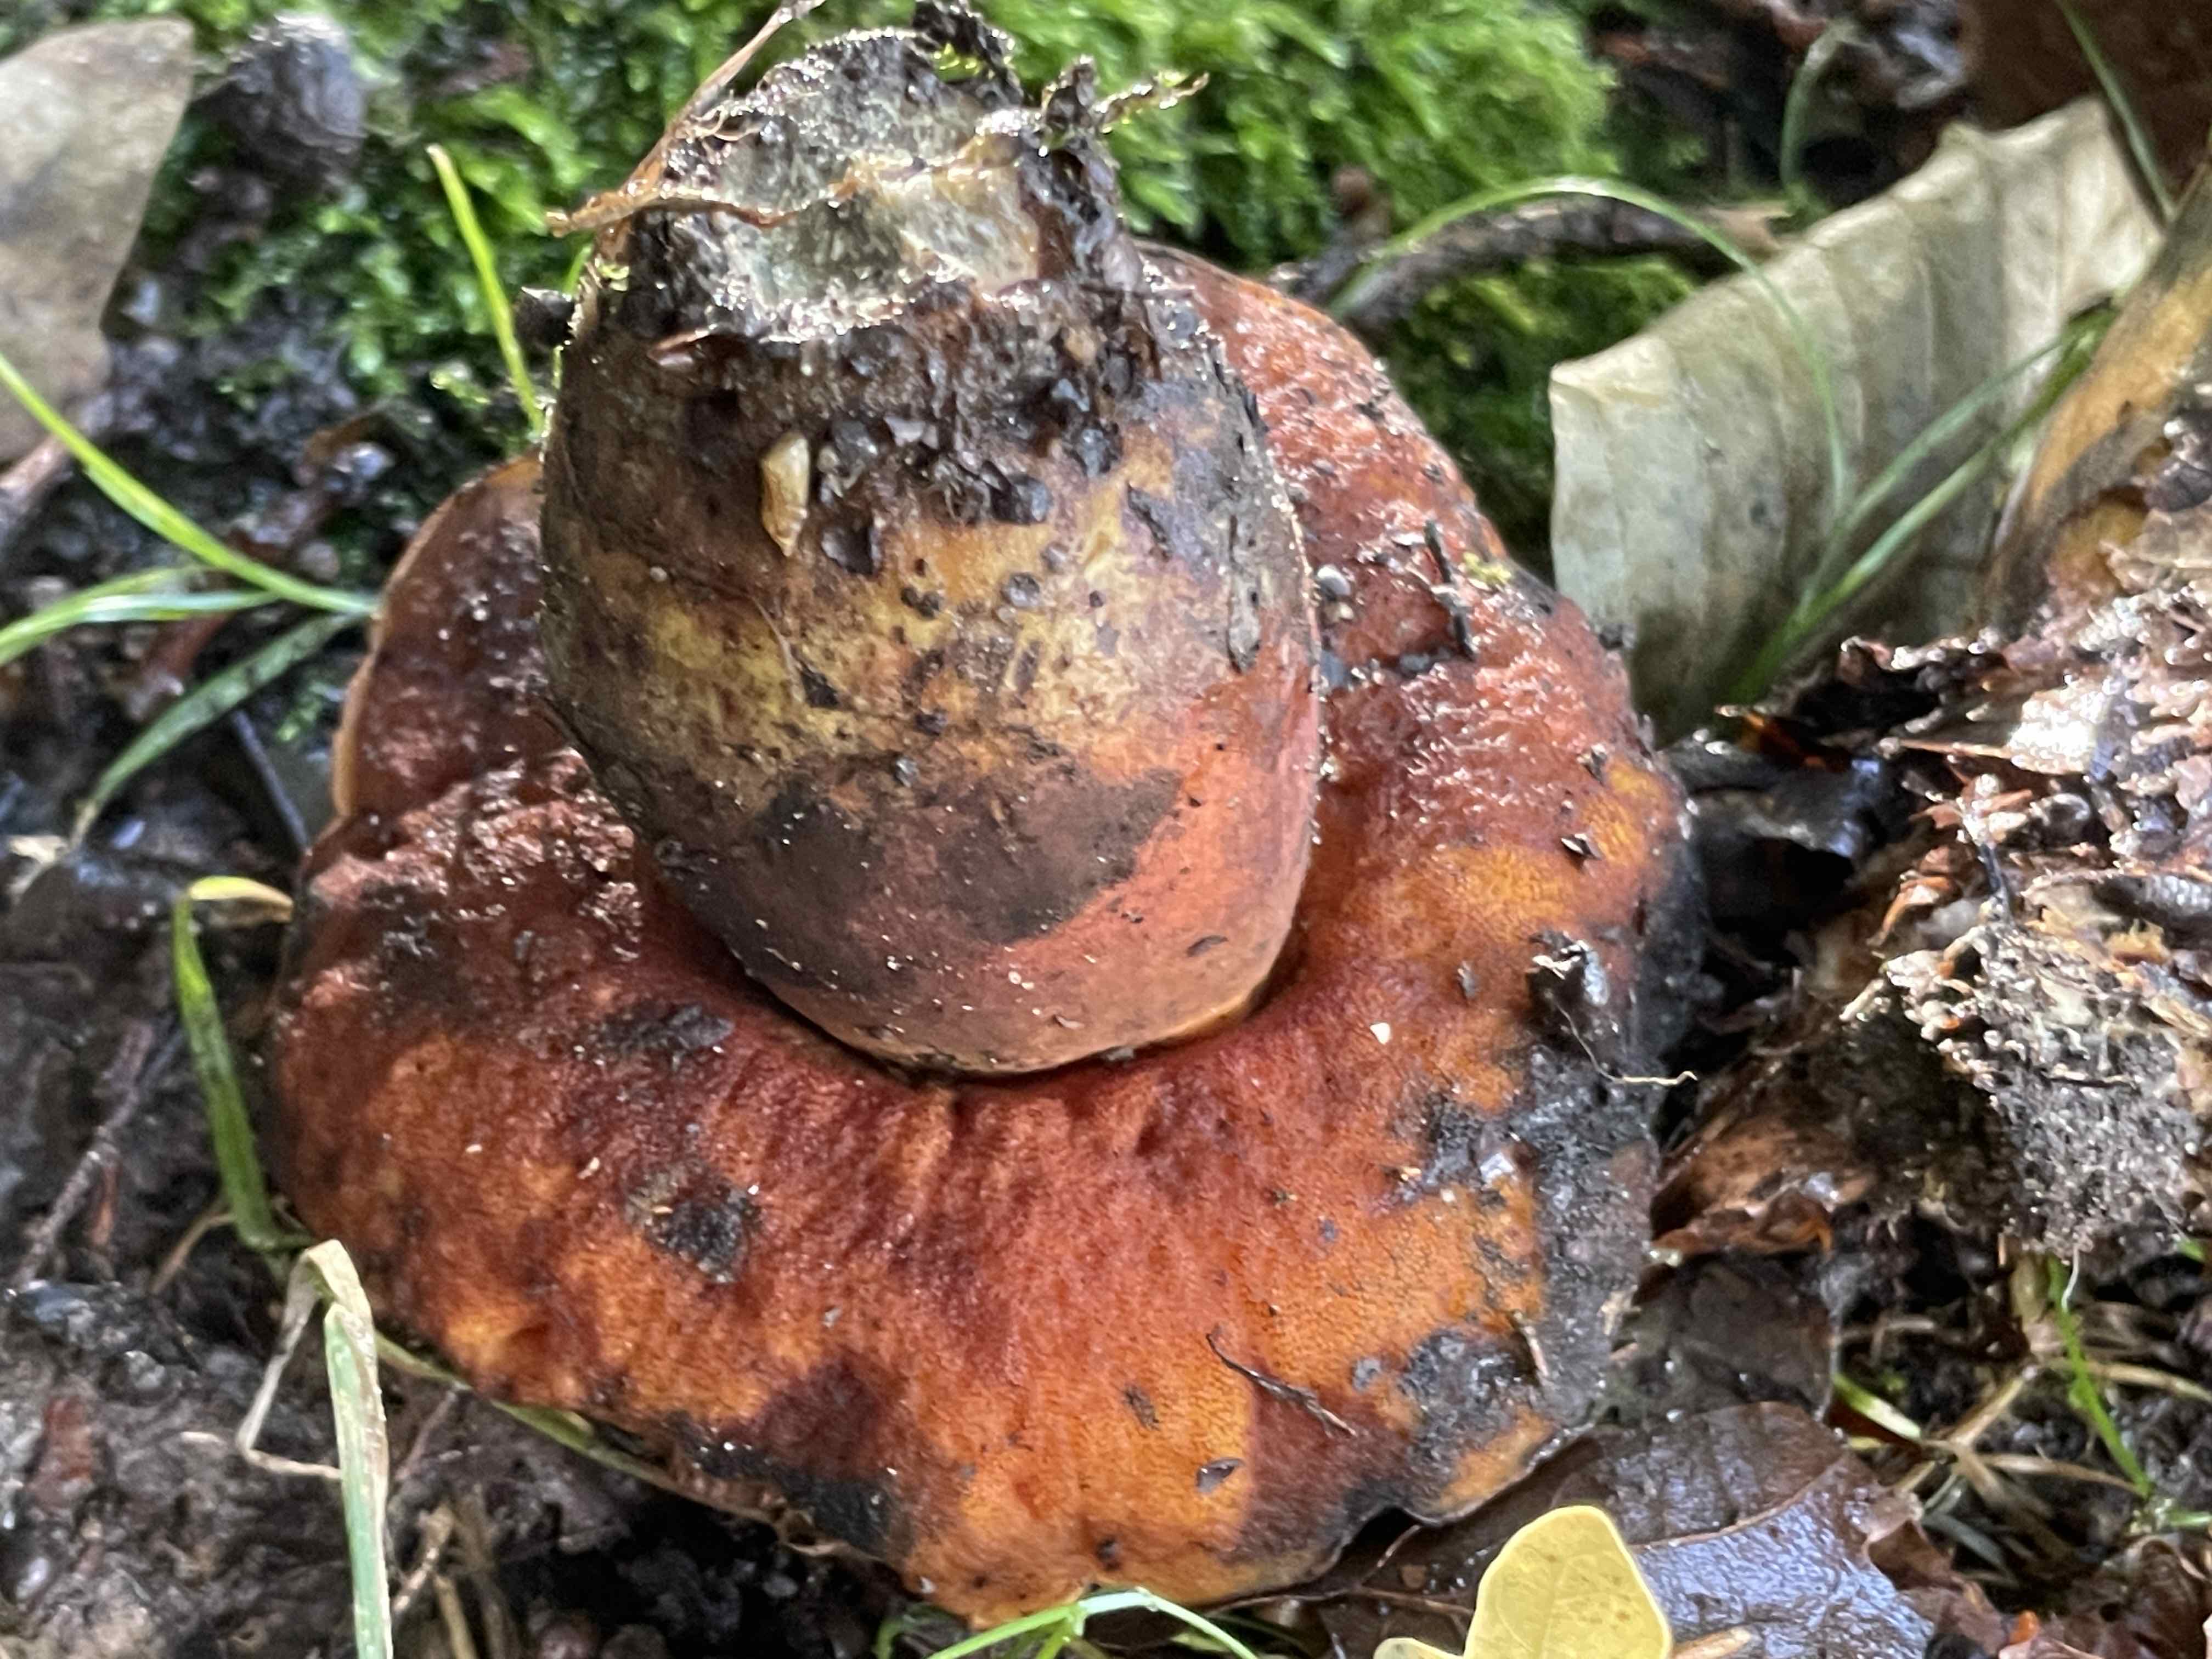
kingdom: Fungi
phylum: Basidiomycota
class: Agaricomycetes
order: Boletales
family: Boletaceae
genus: Neoboletus
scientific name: Neoboletus xanthopus
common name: finprikket indigorørhat
